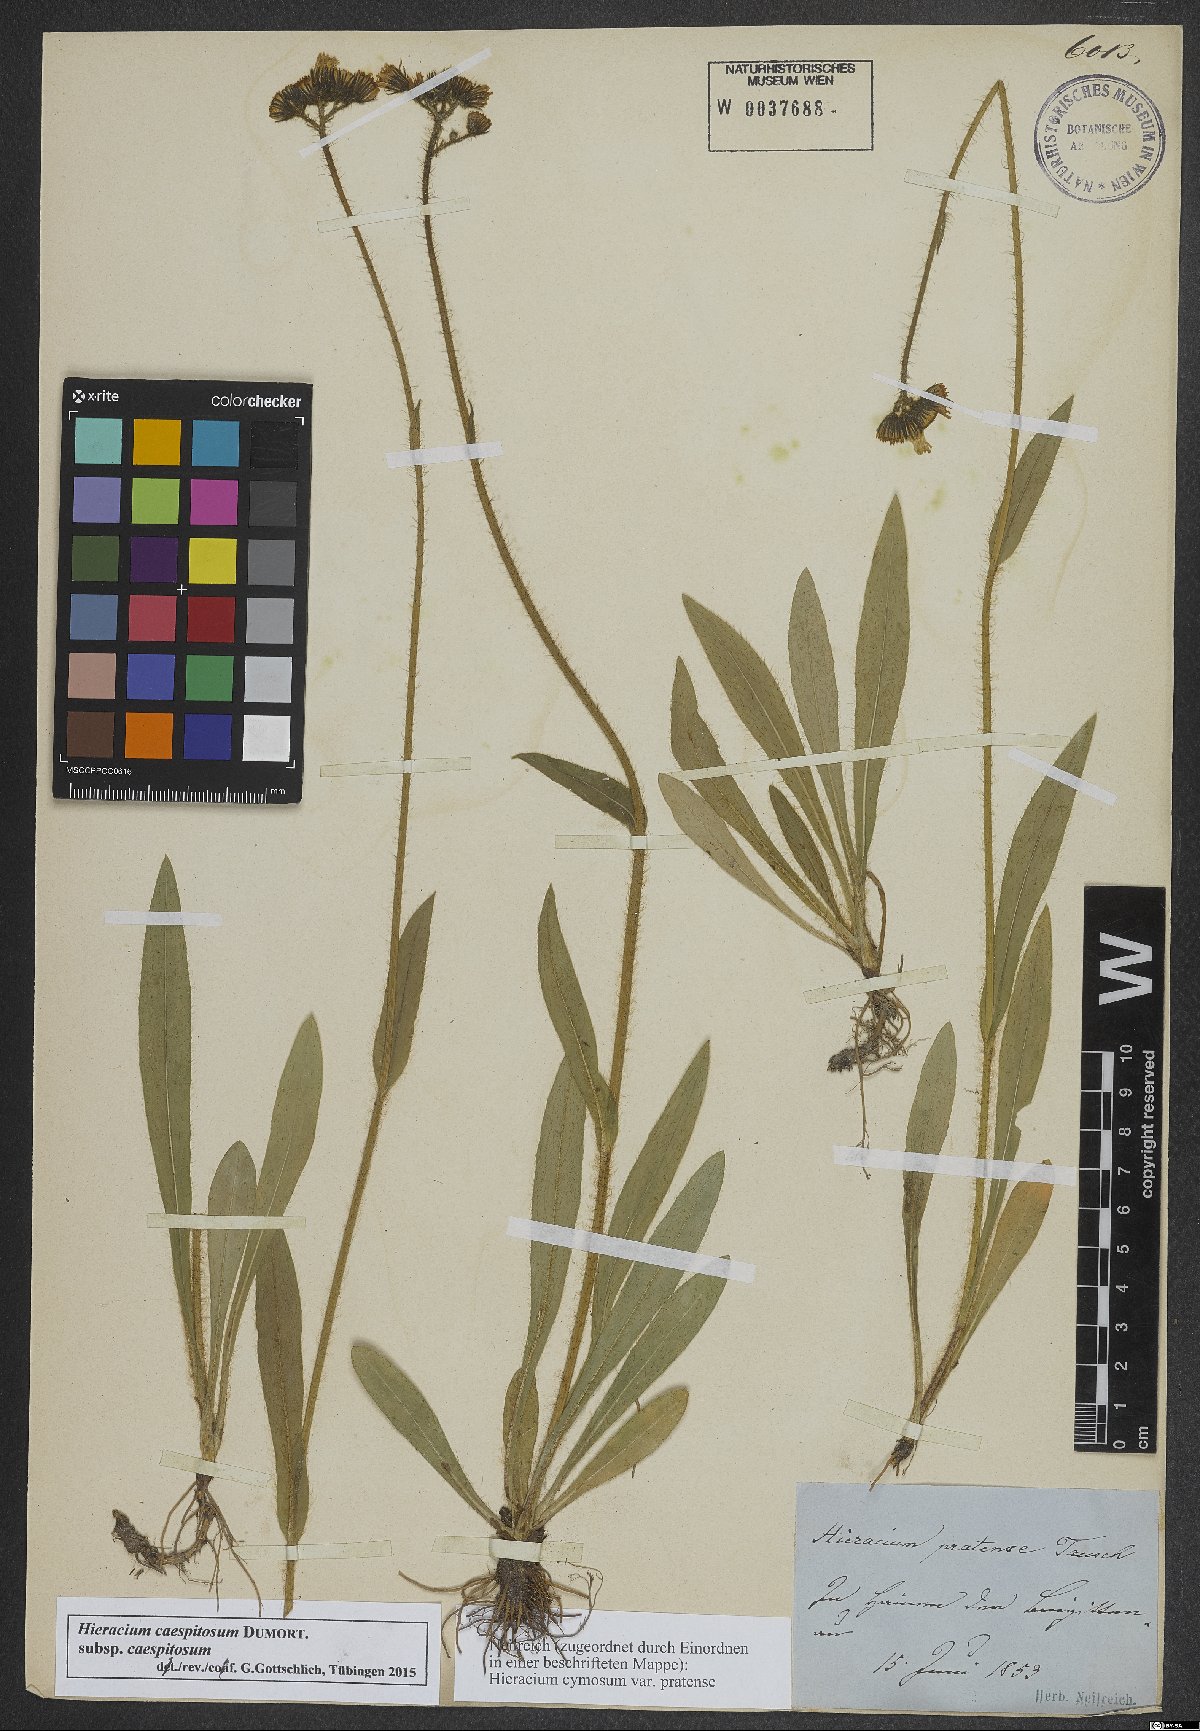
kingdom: Plantae
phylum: Tracheophyta
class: Magnoliopsida
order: Asterales
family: Asteraceae
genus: Pilosella
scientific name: Pilosella caespitosa
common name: Yellow fox-and-cubs
